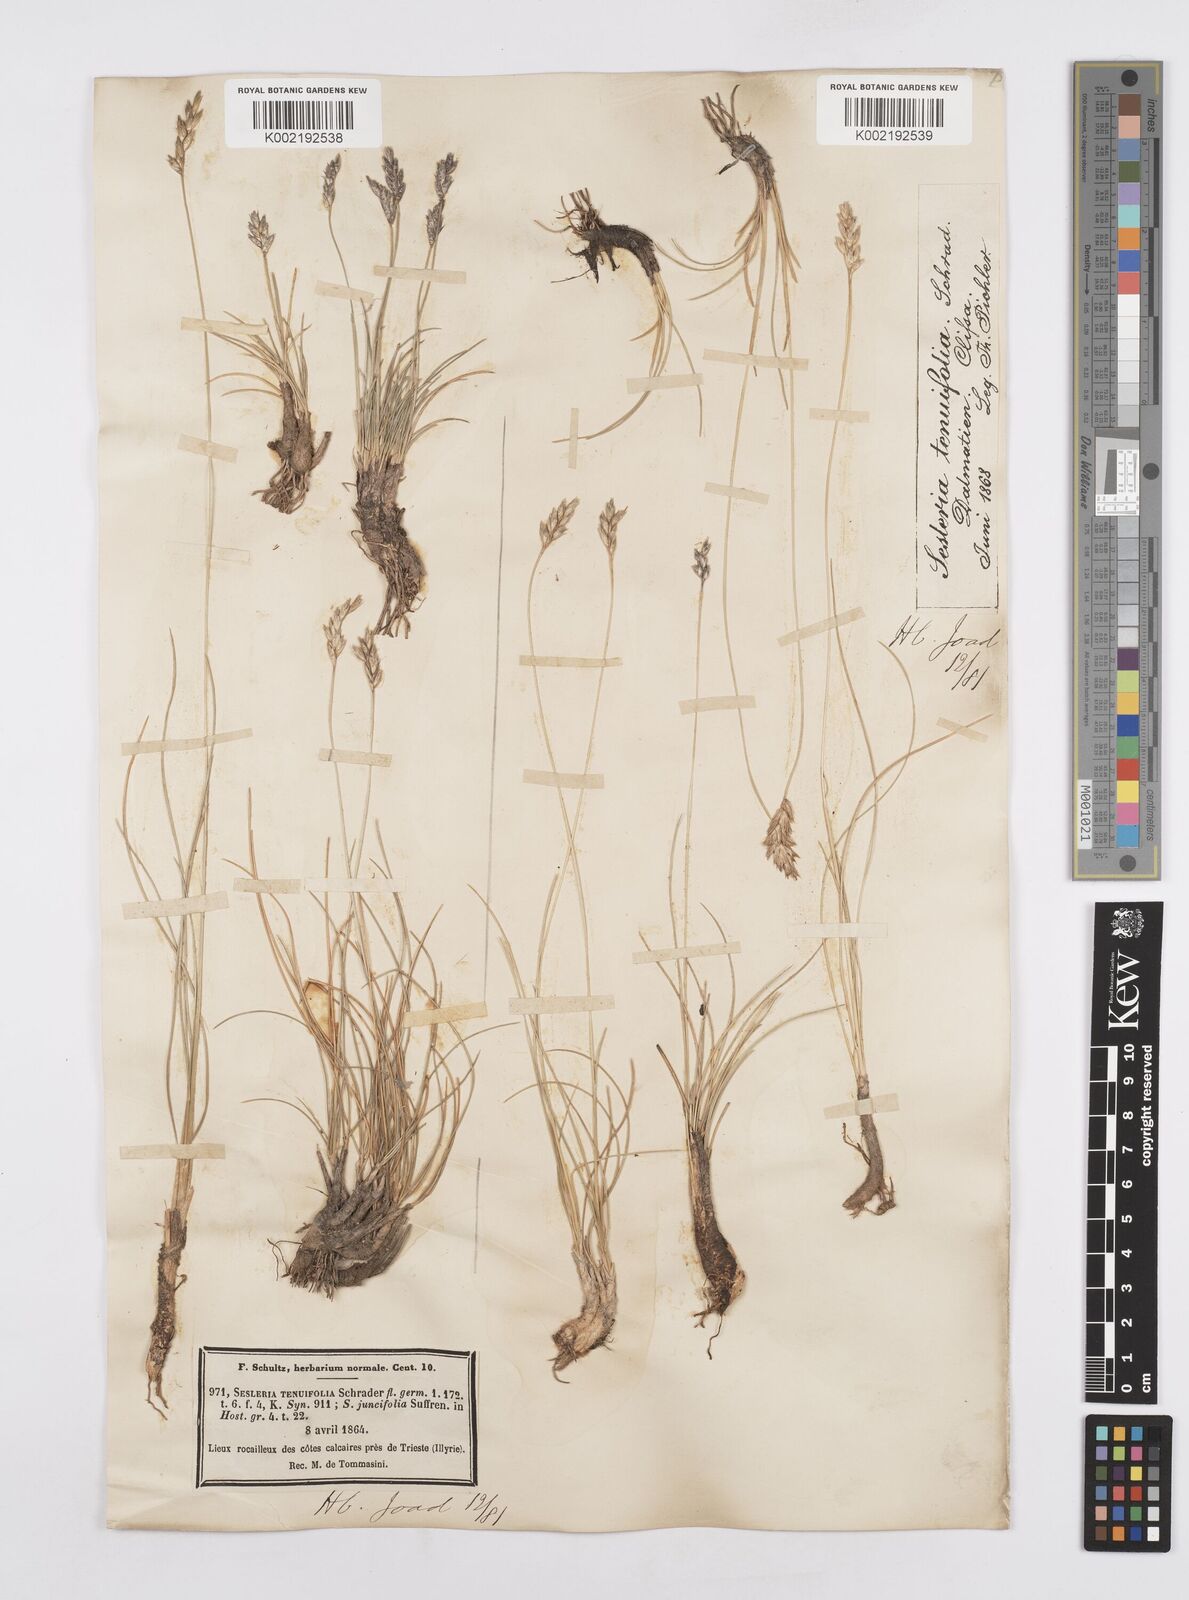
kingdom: Plantae
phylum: Tracheophyta
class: Liliopsida
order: Poales
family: Poaceae
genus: Sesleria
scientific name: Sesleria juncifolia
